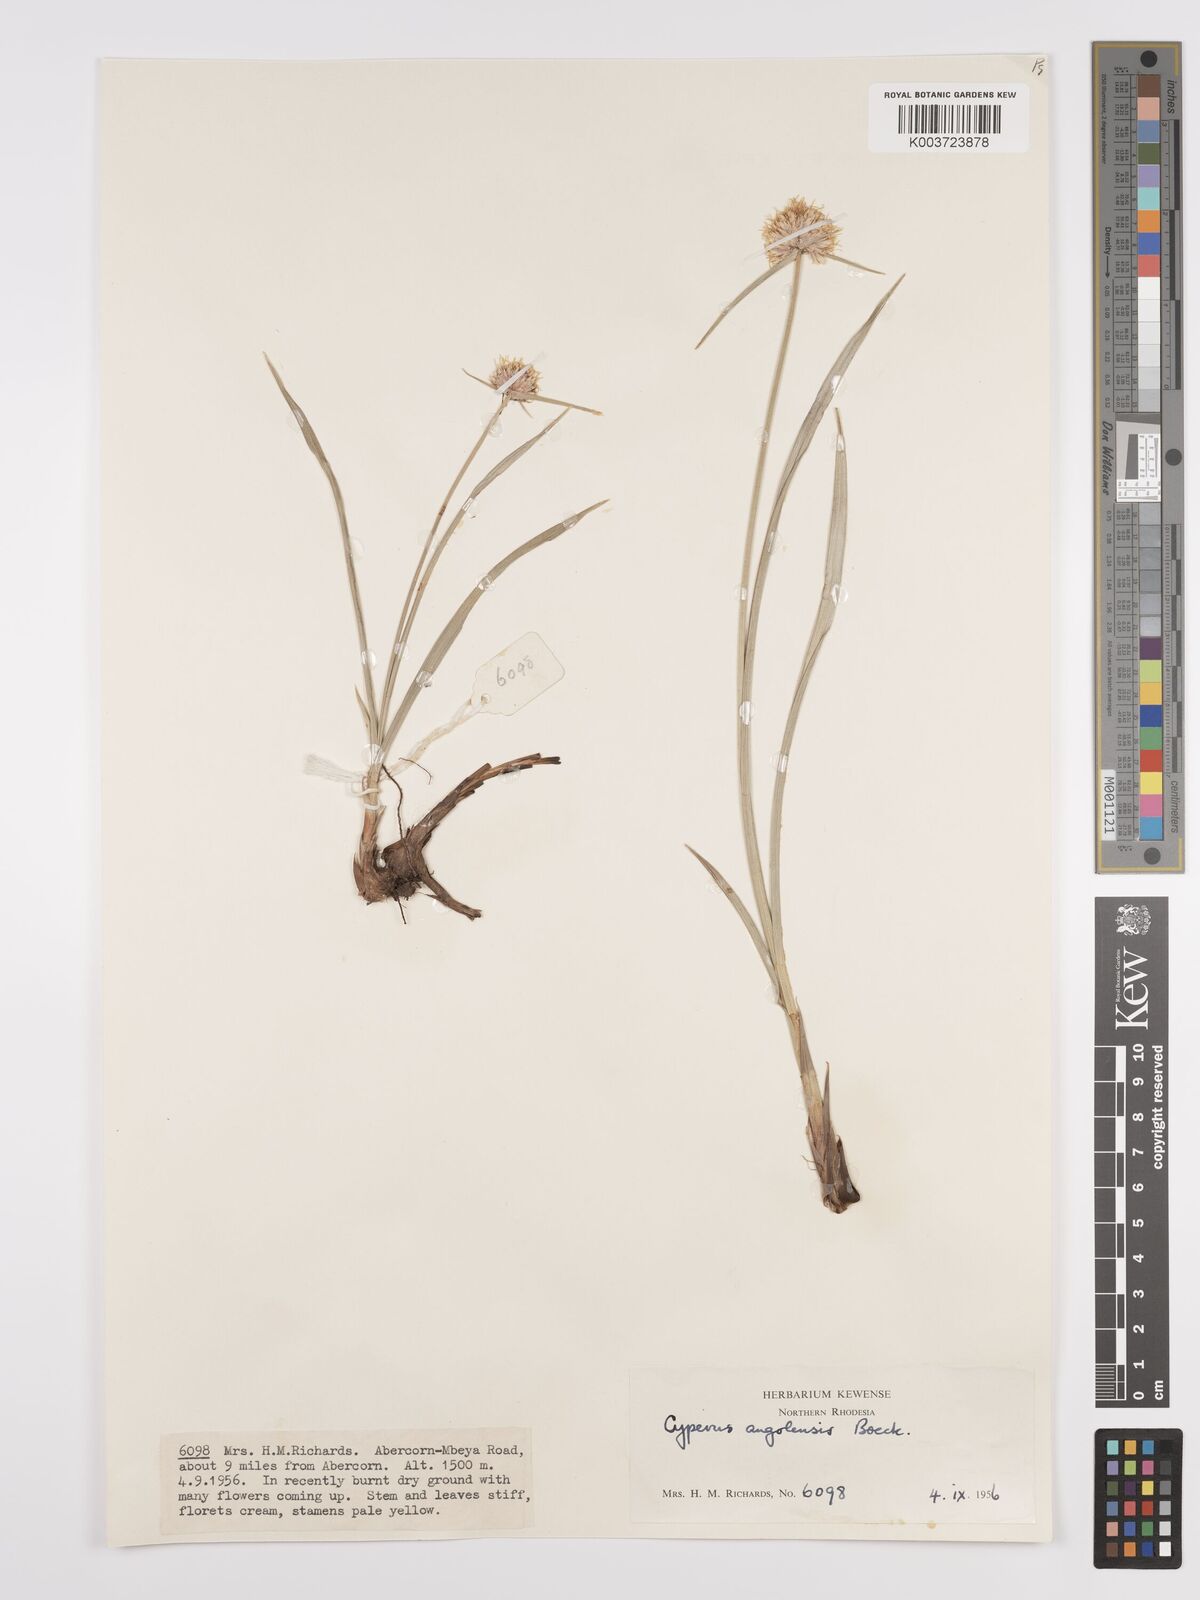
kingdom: Plantae
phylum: Tracheophyta
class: Liliopsida
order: Poales
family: Cyperaceae
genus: Cyperus
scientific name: Cyperus angolensis
